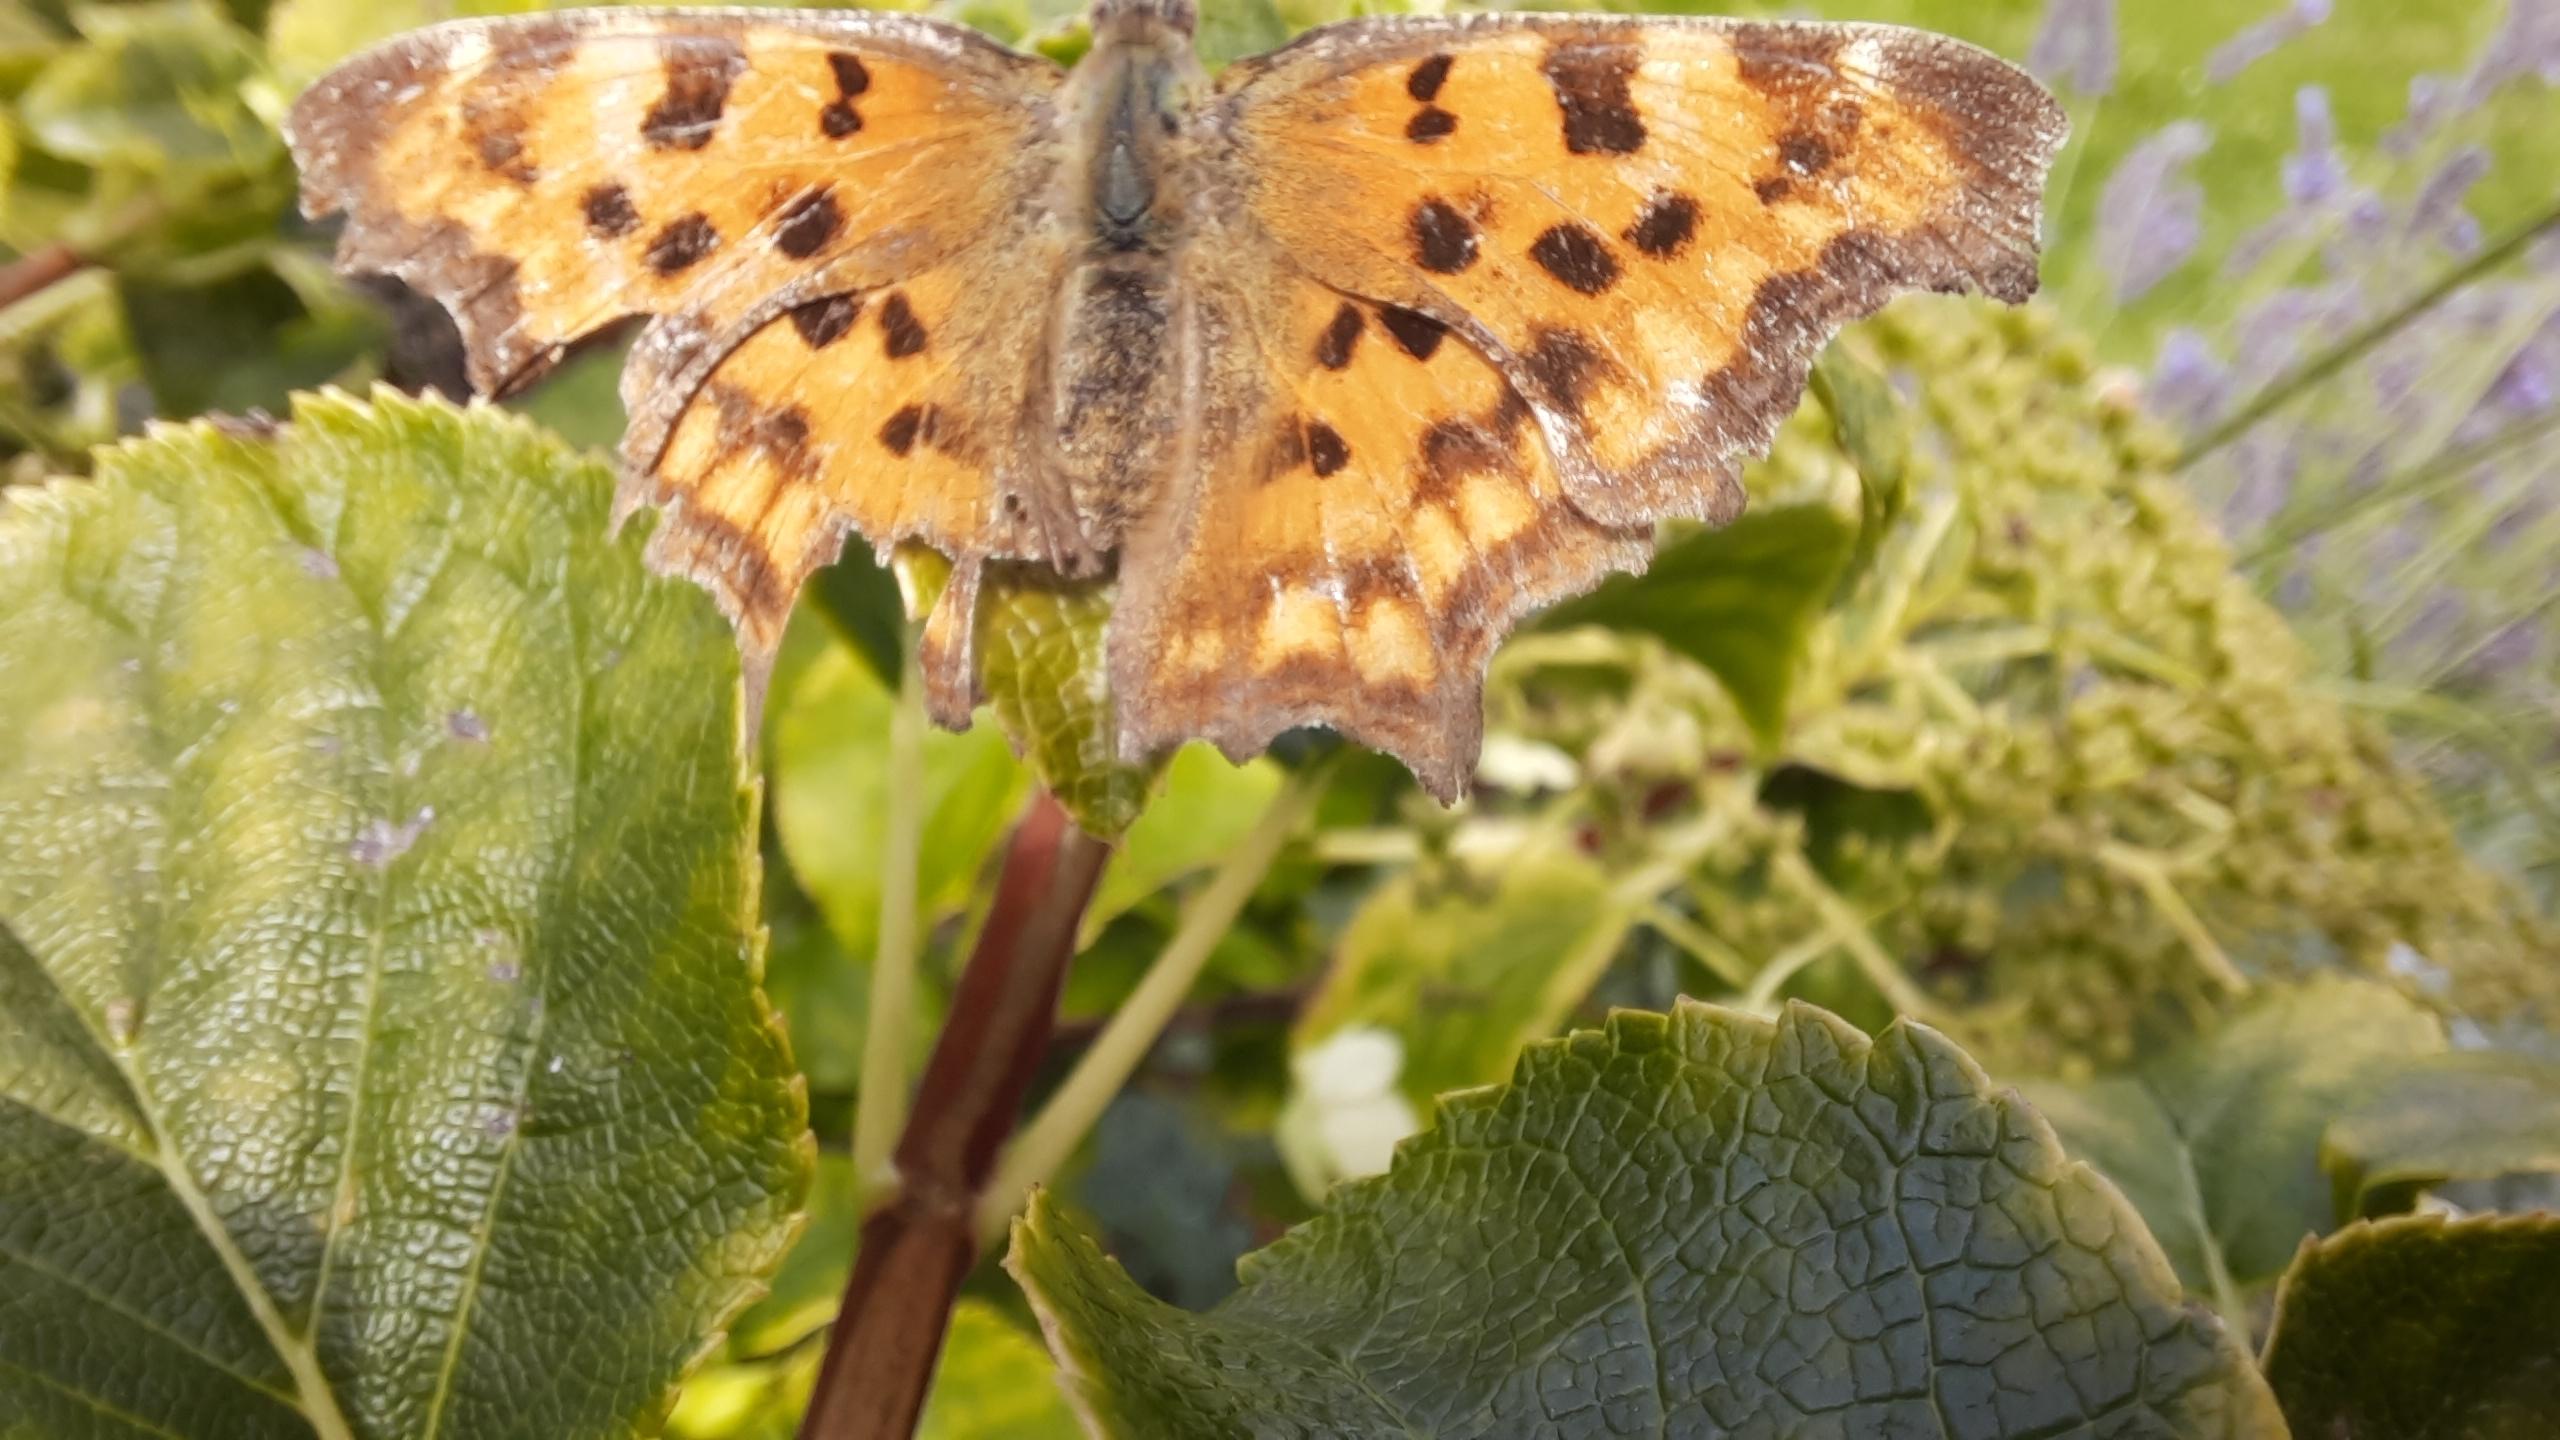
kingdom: Animalia
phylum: Arthropoda
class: Insecta
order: Lepidoptera
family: Nymphalidae
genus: Polygonia
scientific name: Polygonia c-album
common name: Det hvide C
